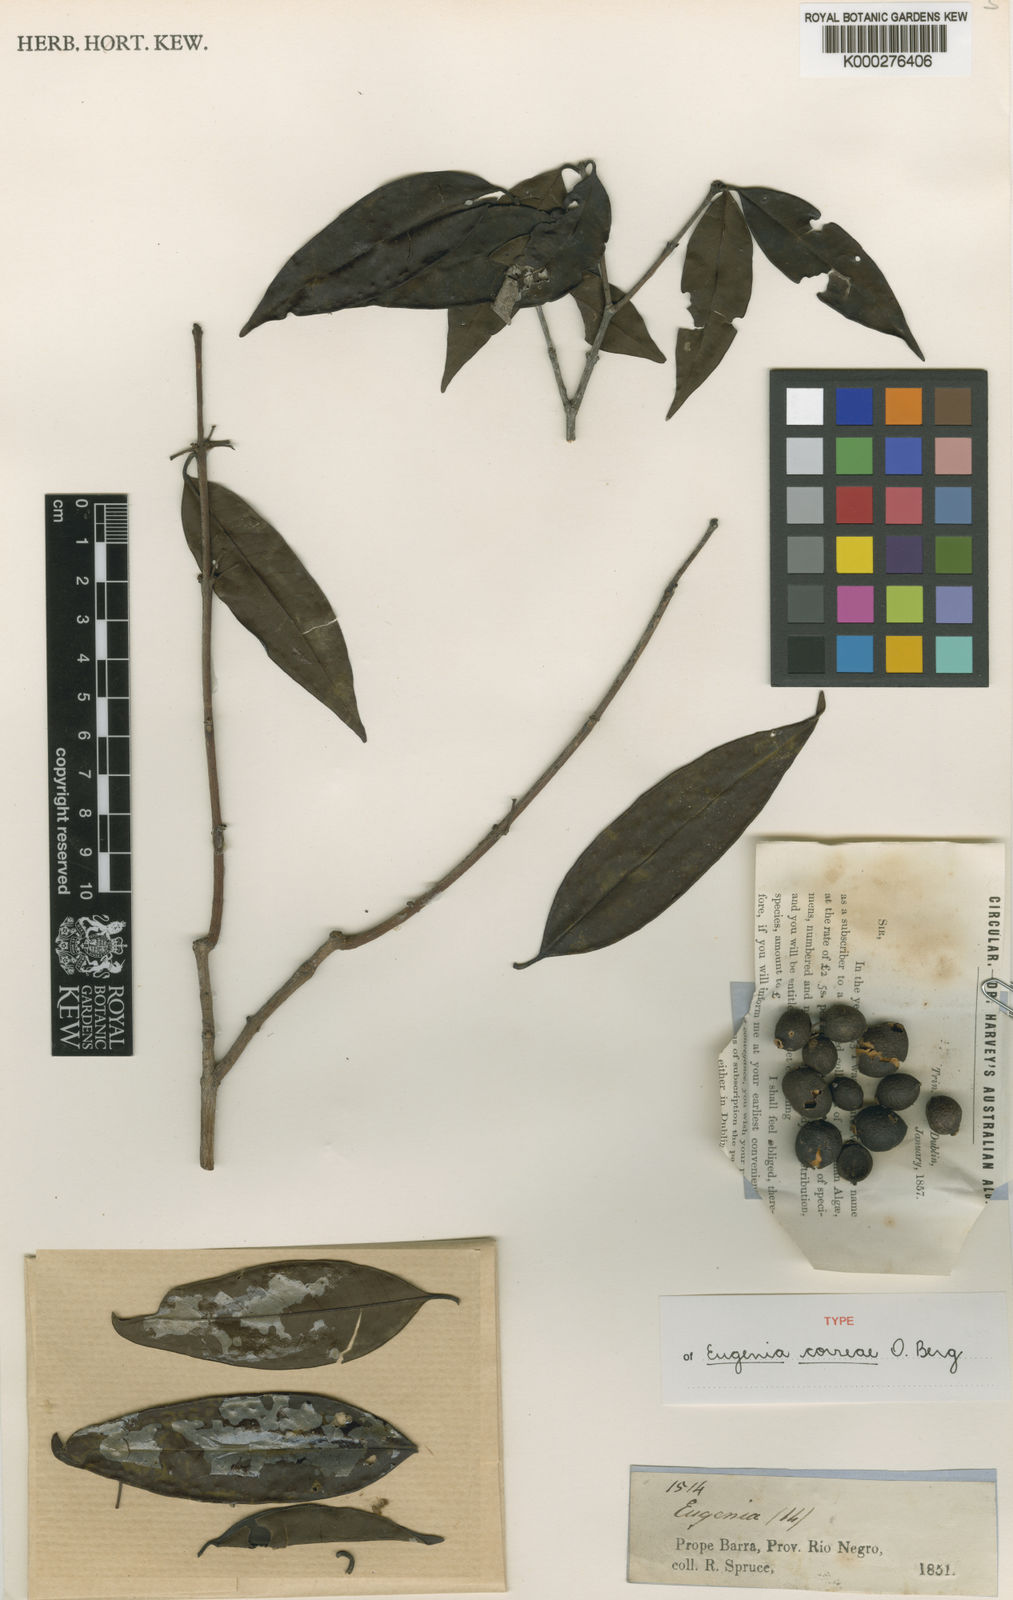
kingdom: Plantae
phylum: Tracheophyta
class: Magnoliopsida
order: Myrtales
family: Myrtaceae
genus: Eugenia
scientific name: Eugenia lambertiana
